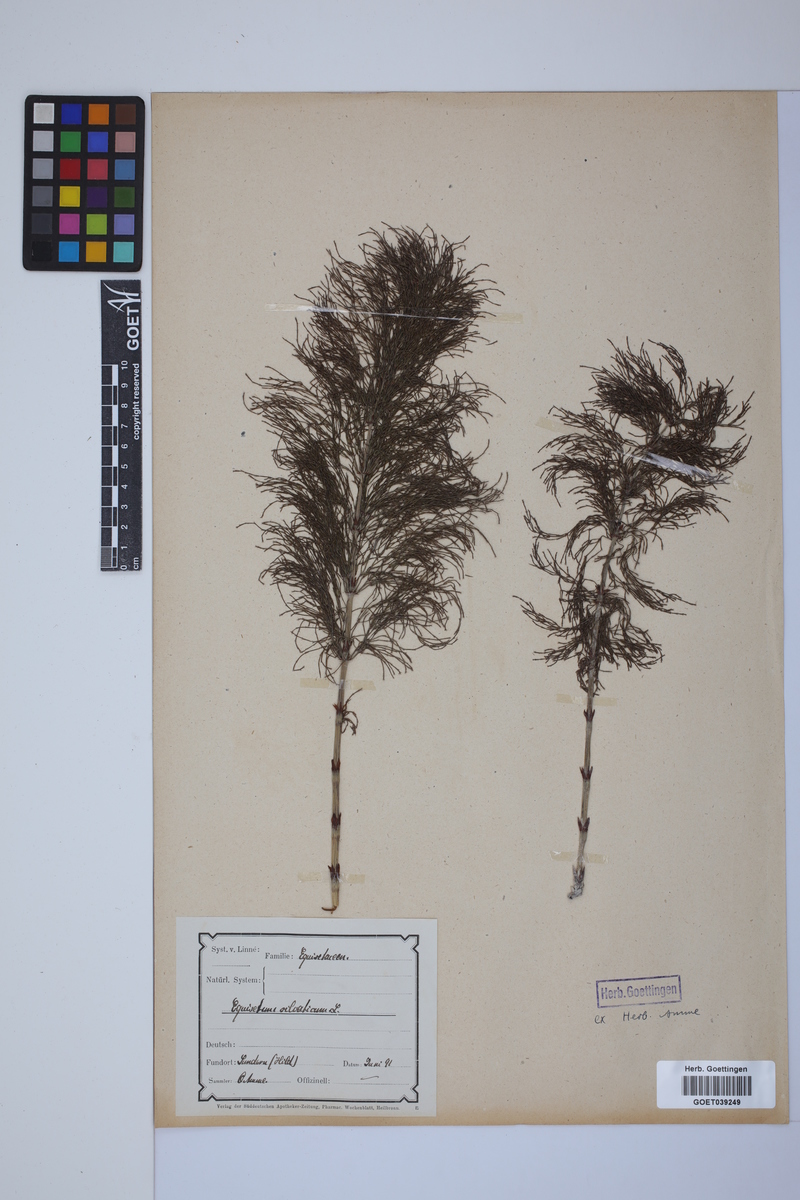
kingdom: Plantae
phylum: Tracheophyta
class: Polypodiopsida
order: Equisetales
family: Equisetaceae
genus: Equisetum
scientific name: Equisetum sylvaticum
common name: Wood horsetail
